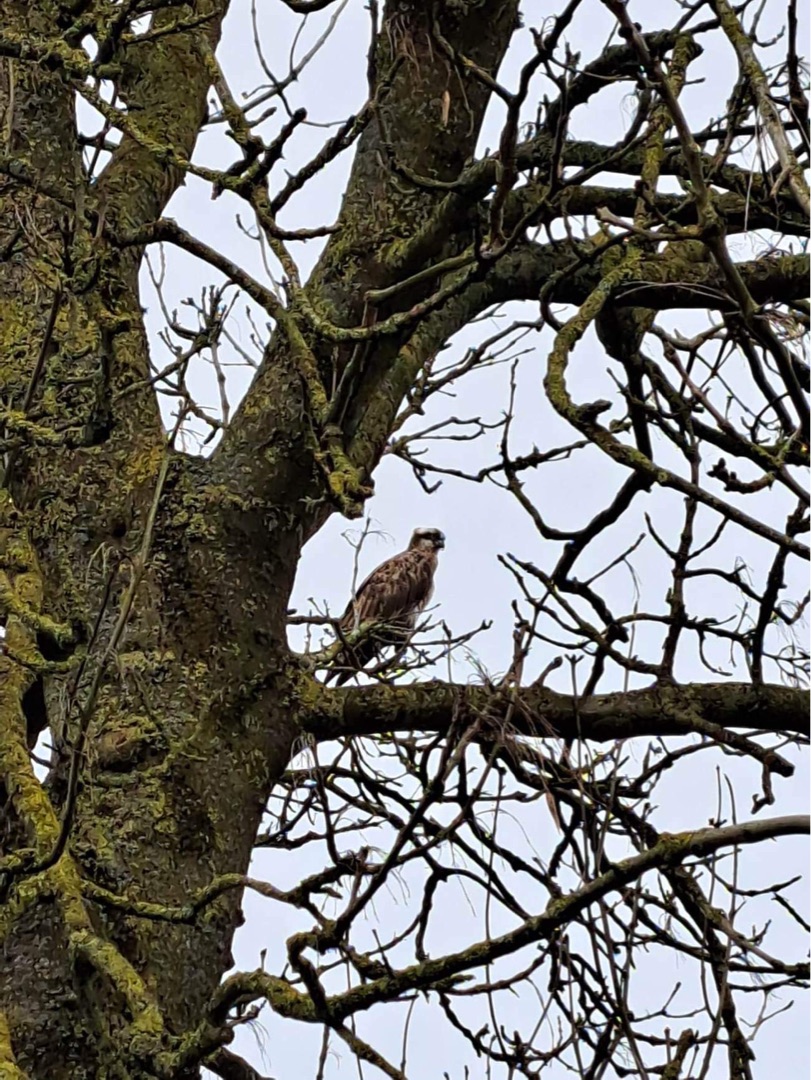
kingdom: Animalia
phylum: Chordata
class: Aves
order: Accipitriformes
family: Pandionidae
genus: Pandion
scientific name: Pandion haliaetus
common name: Fiskeørn
